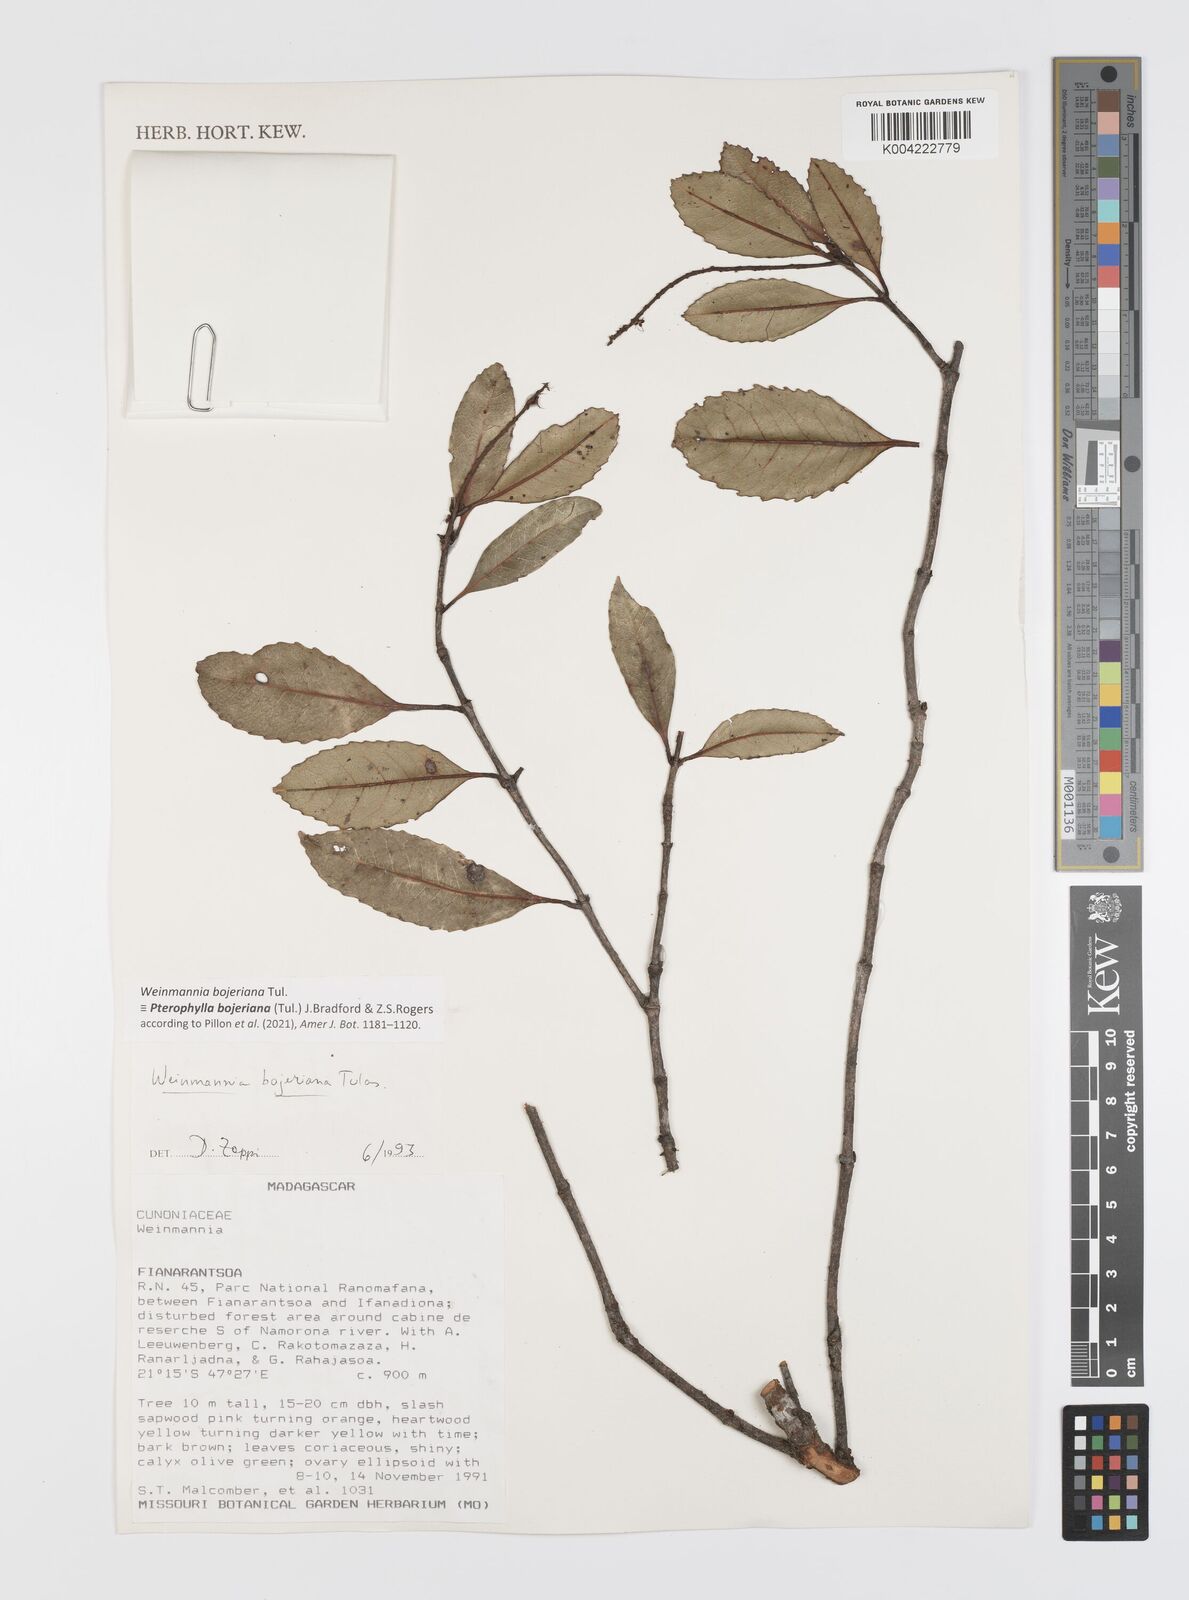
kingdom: Plantae
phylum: Tracheophyta
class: Magnoliopsida
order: Oxalidales
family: Cunoniaceae
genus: Pterophylla
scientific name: Pterophylla
